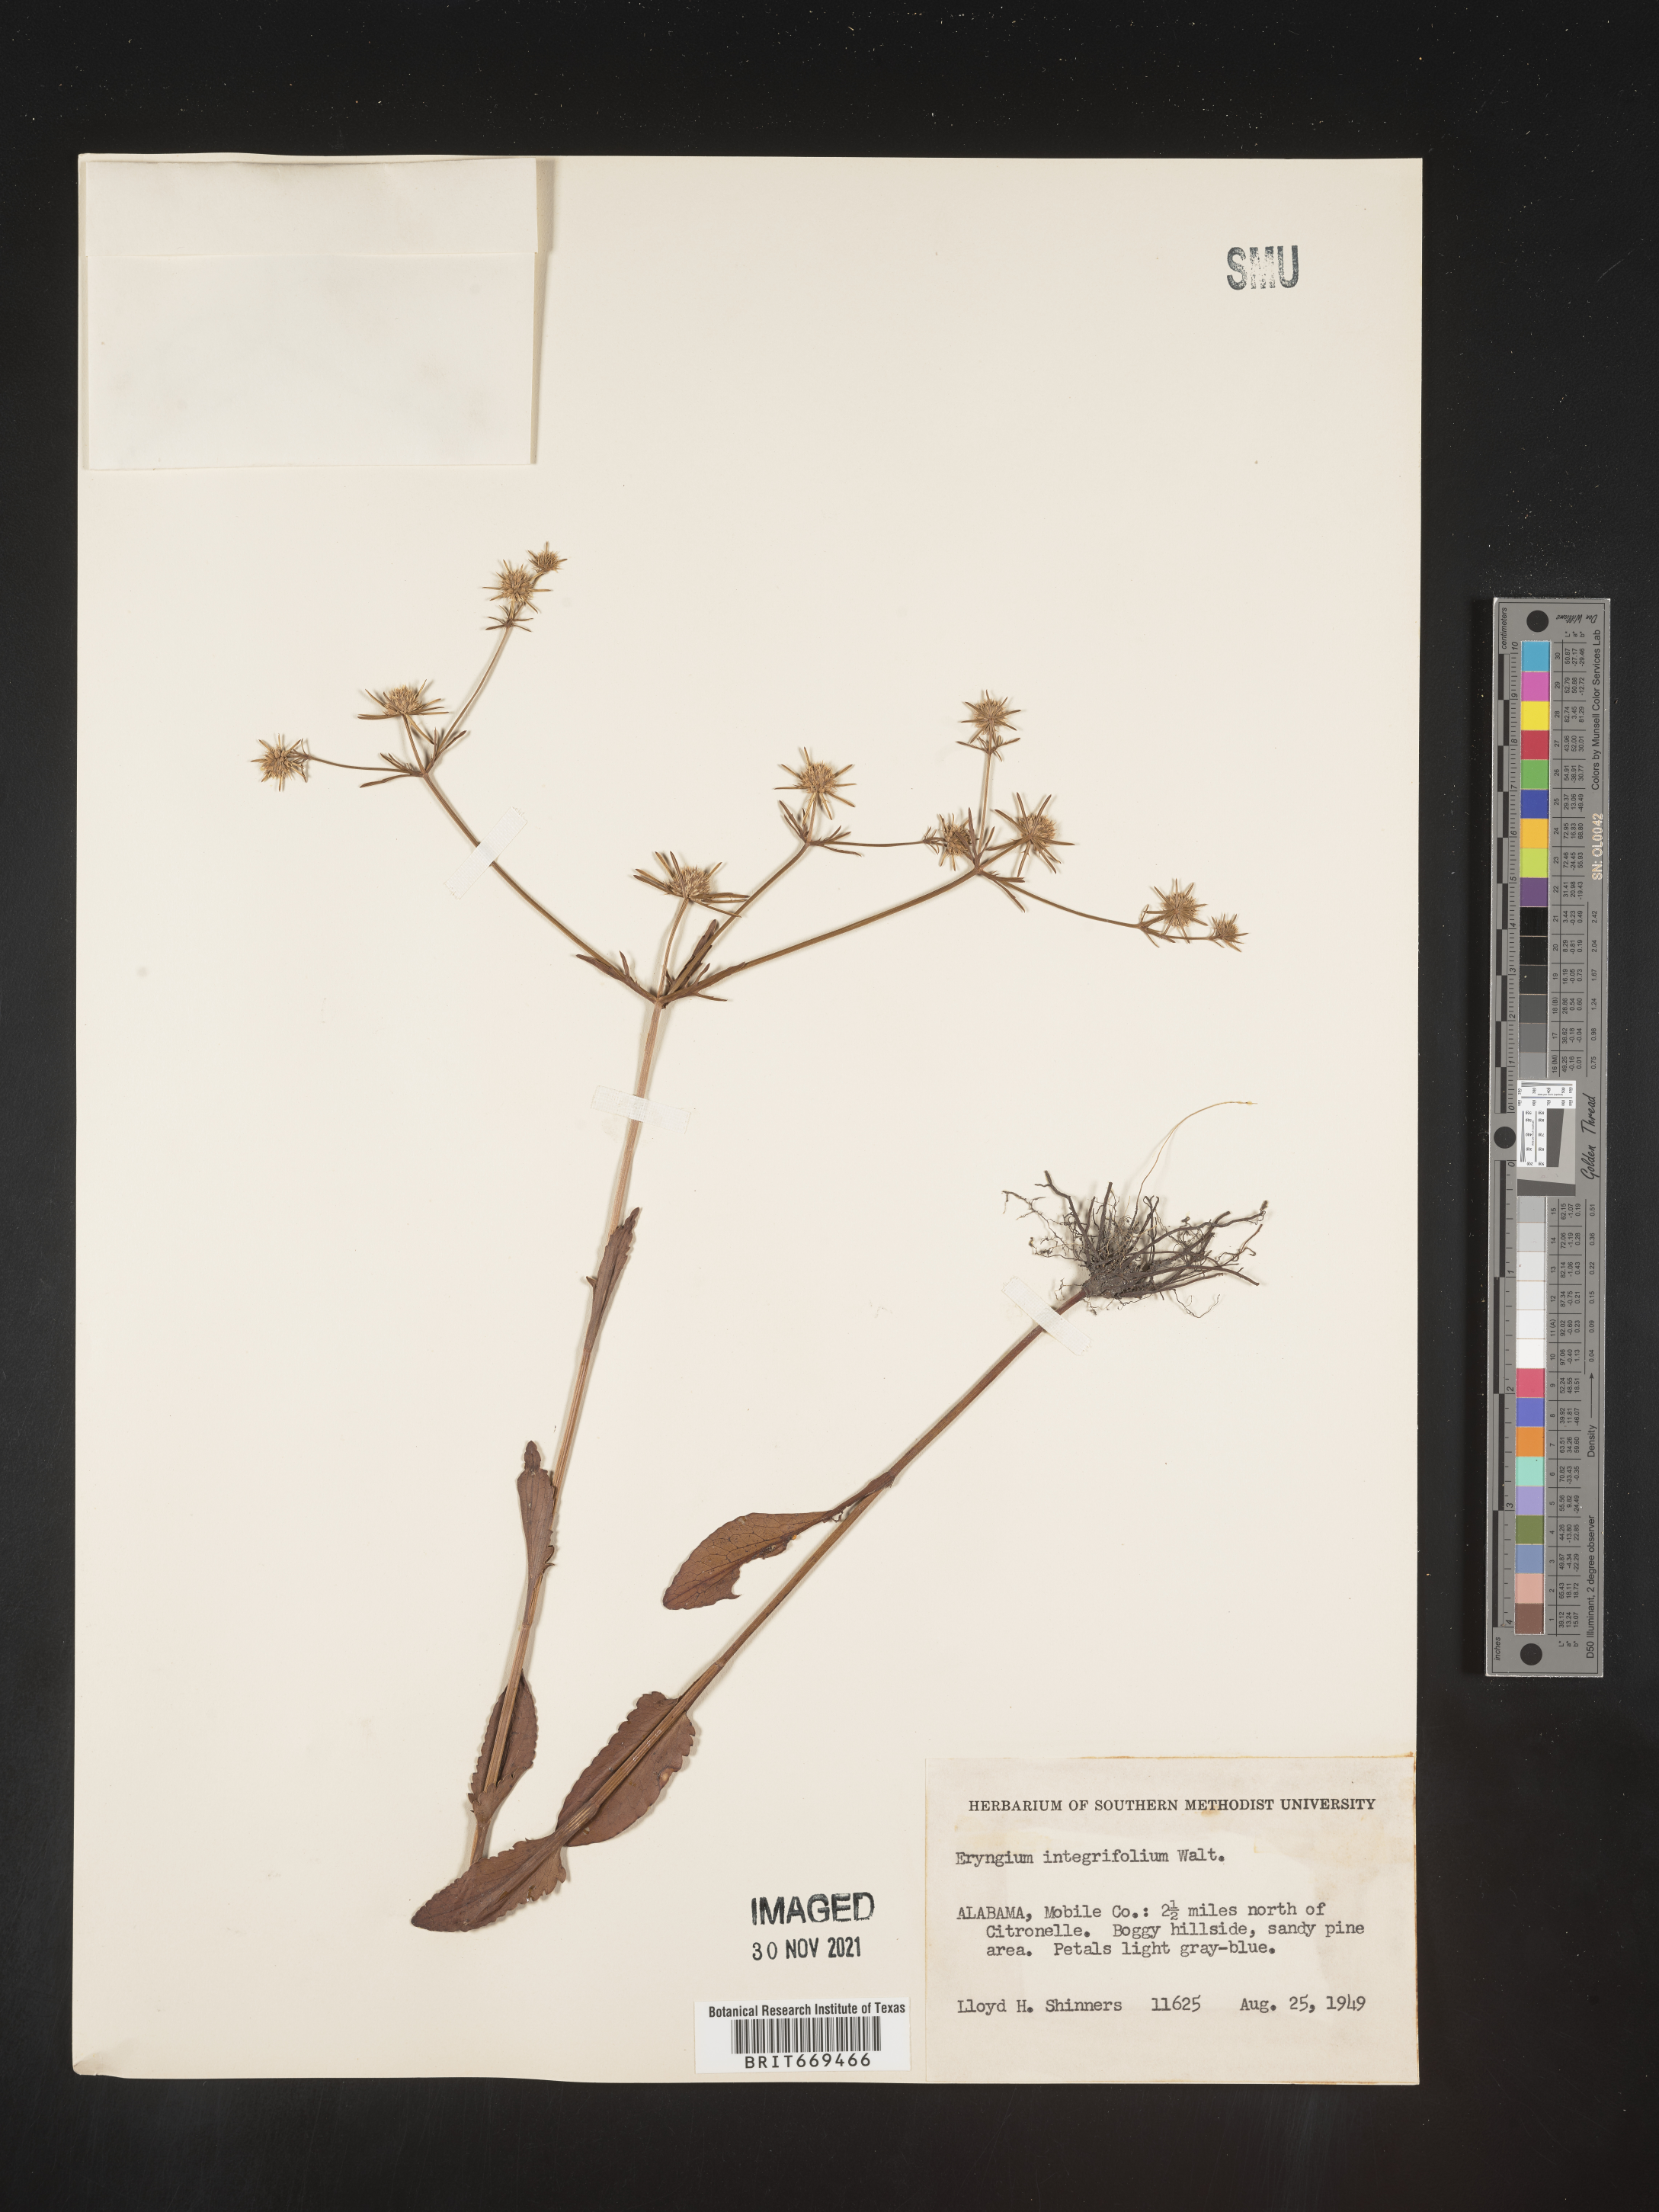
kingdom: Plantae
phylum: Tracheophyta
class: Magnoliopsida
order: Apiales
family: Apiaceae
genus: Eryngium
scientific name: Eryngium integrifolium
